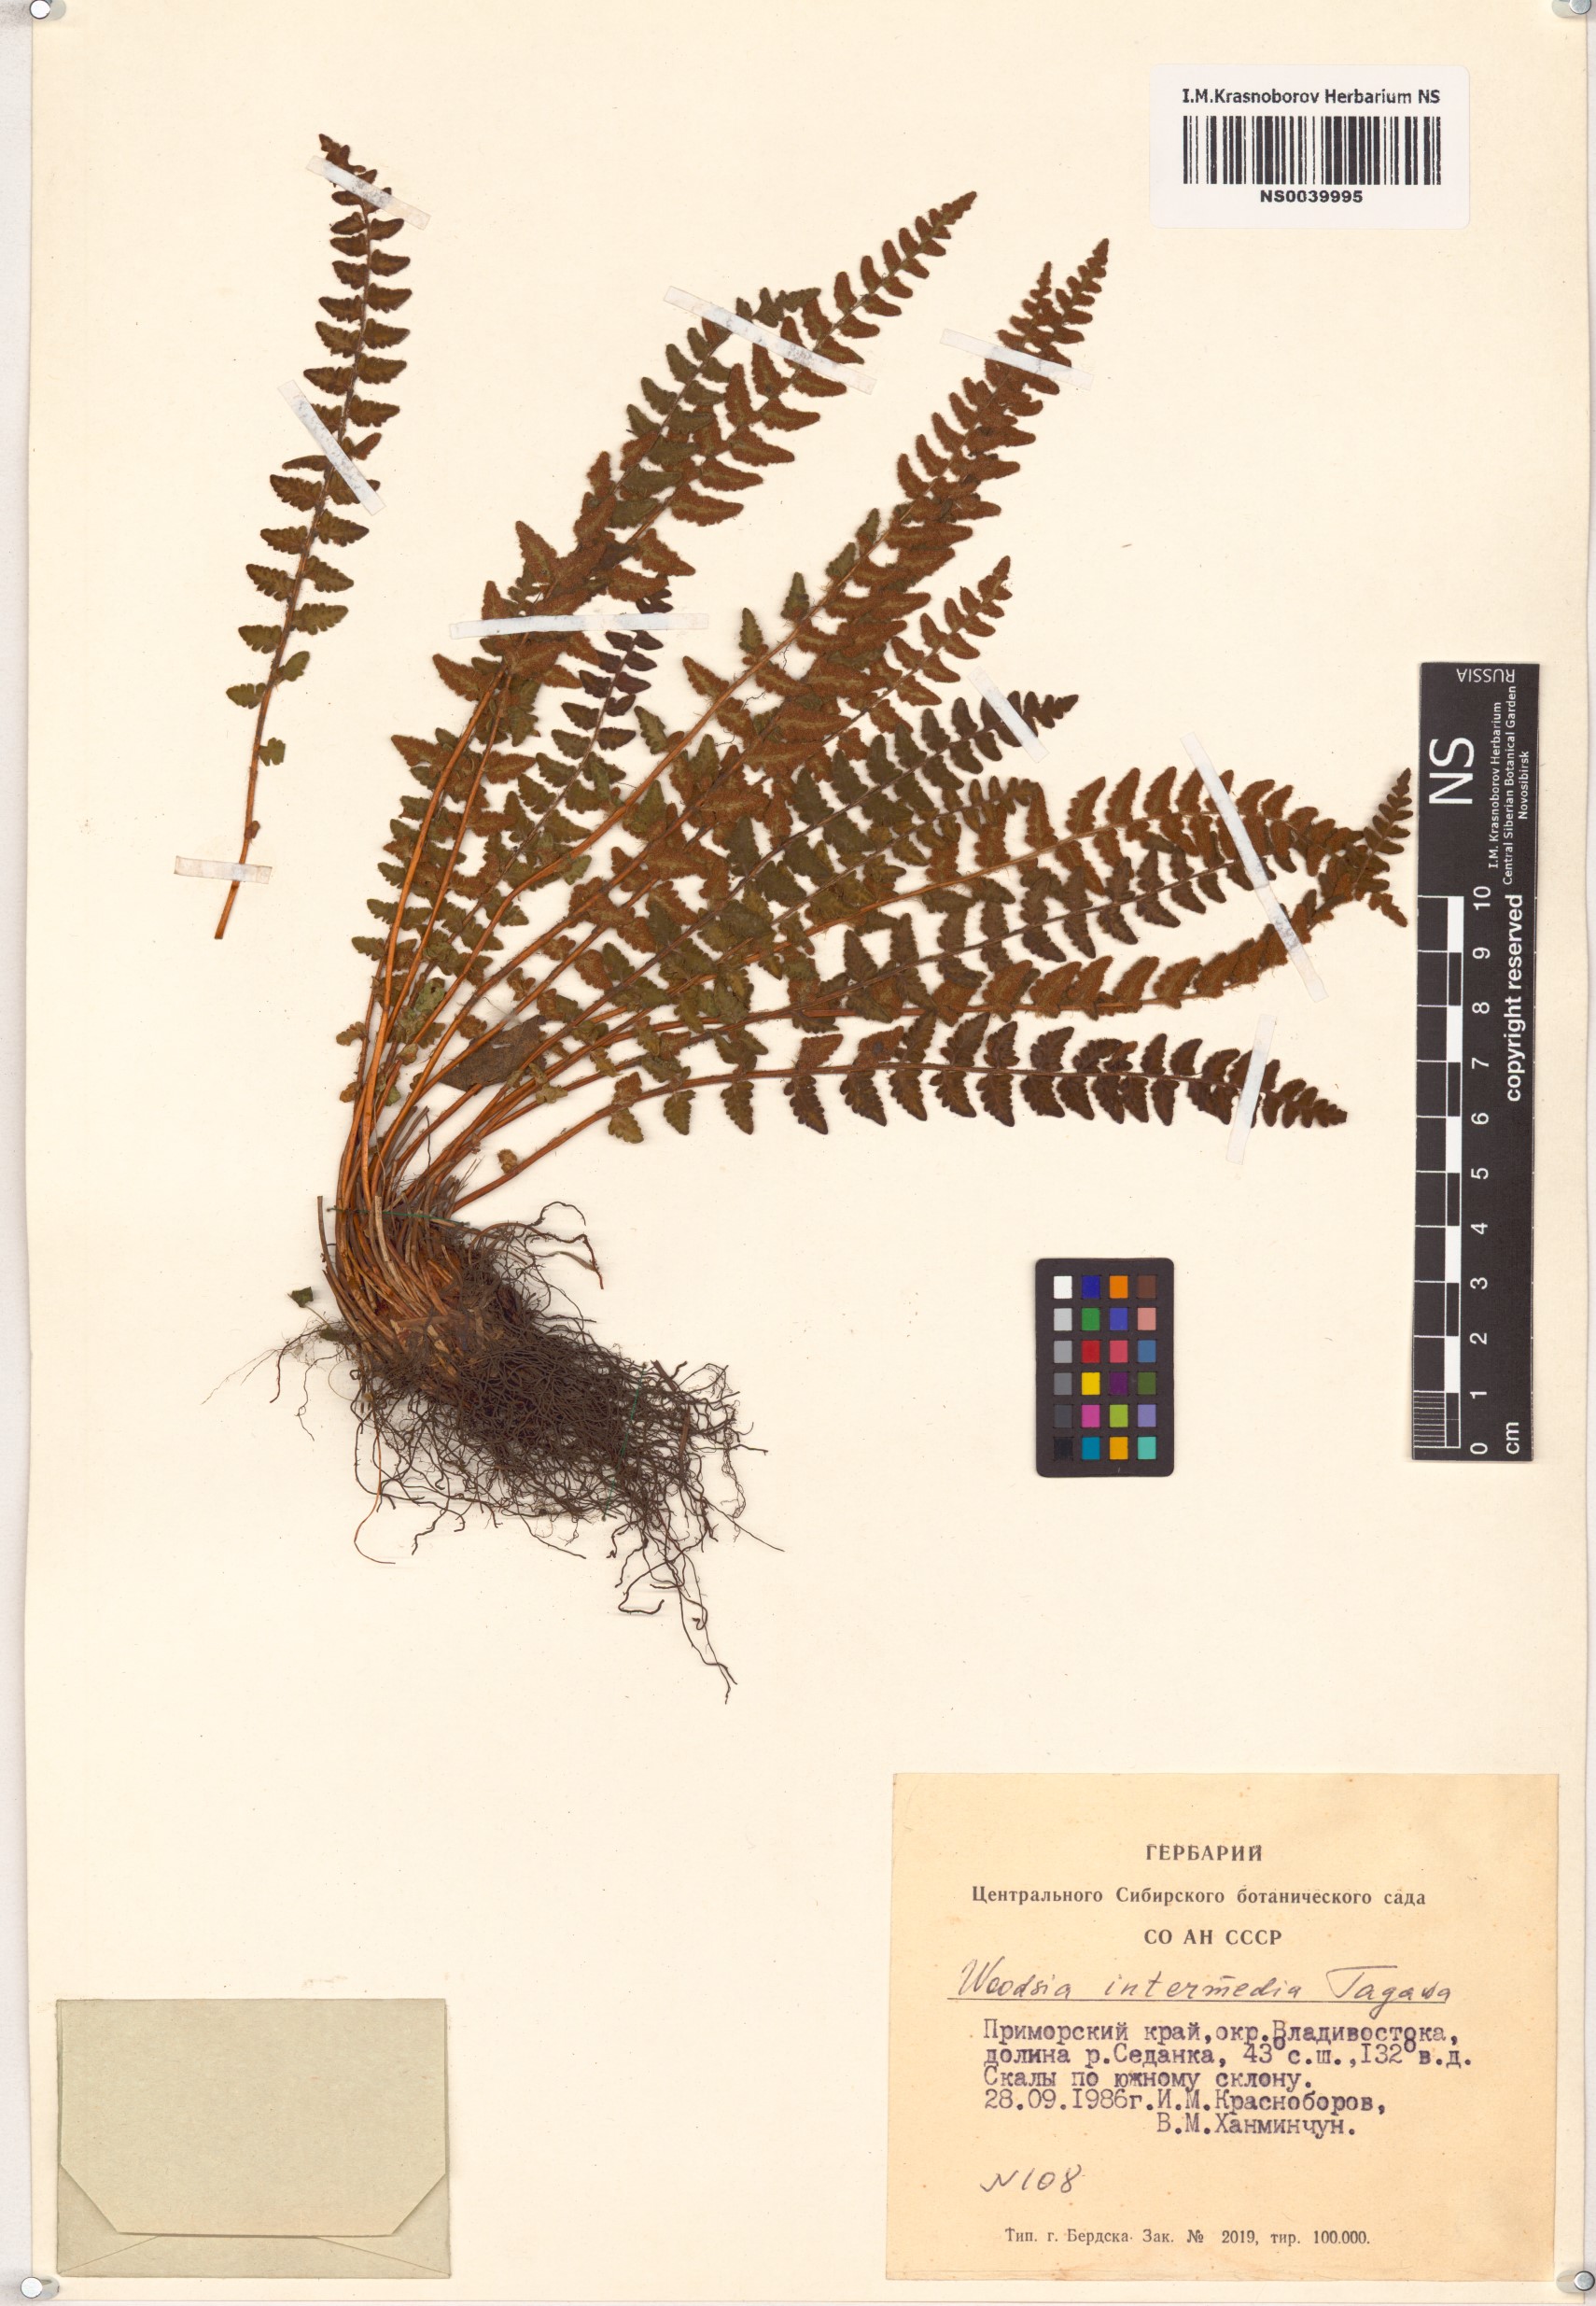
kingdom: Plantae
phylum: Tracheophyta
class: Polypodiopsida
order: Polypodiales
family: Woodsiaceae
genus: Woodsia
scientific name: Woodsia taishanensis
